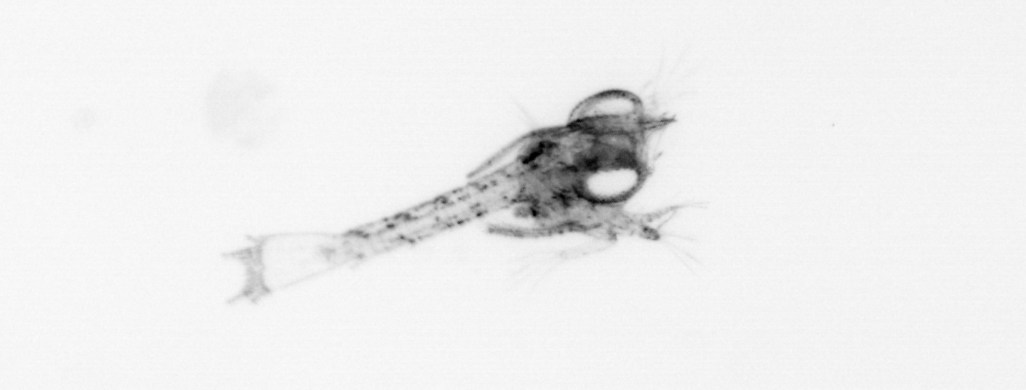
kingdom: Animalia
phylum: Arthropoda
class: Malacostraca
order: Decapoda
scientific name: Decapoda
